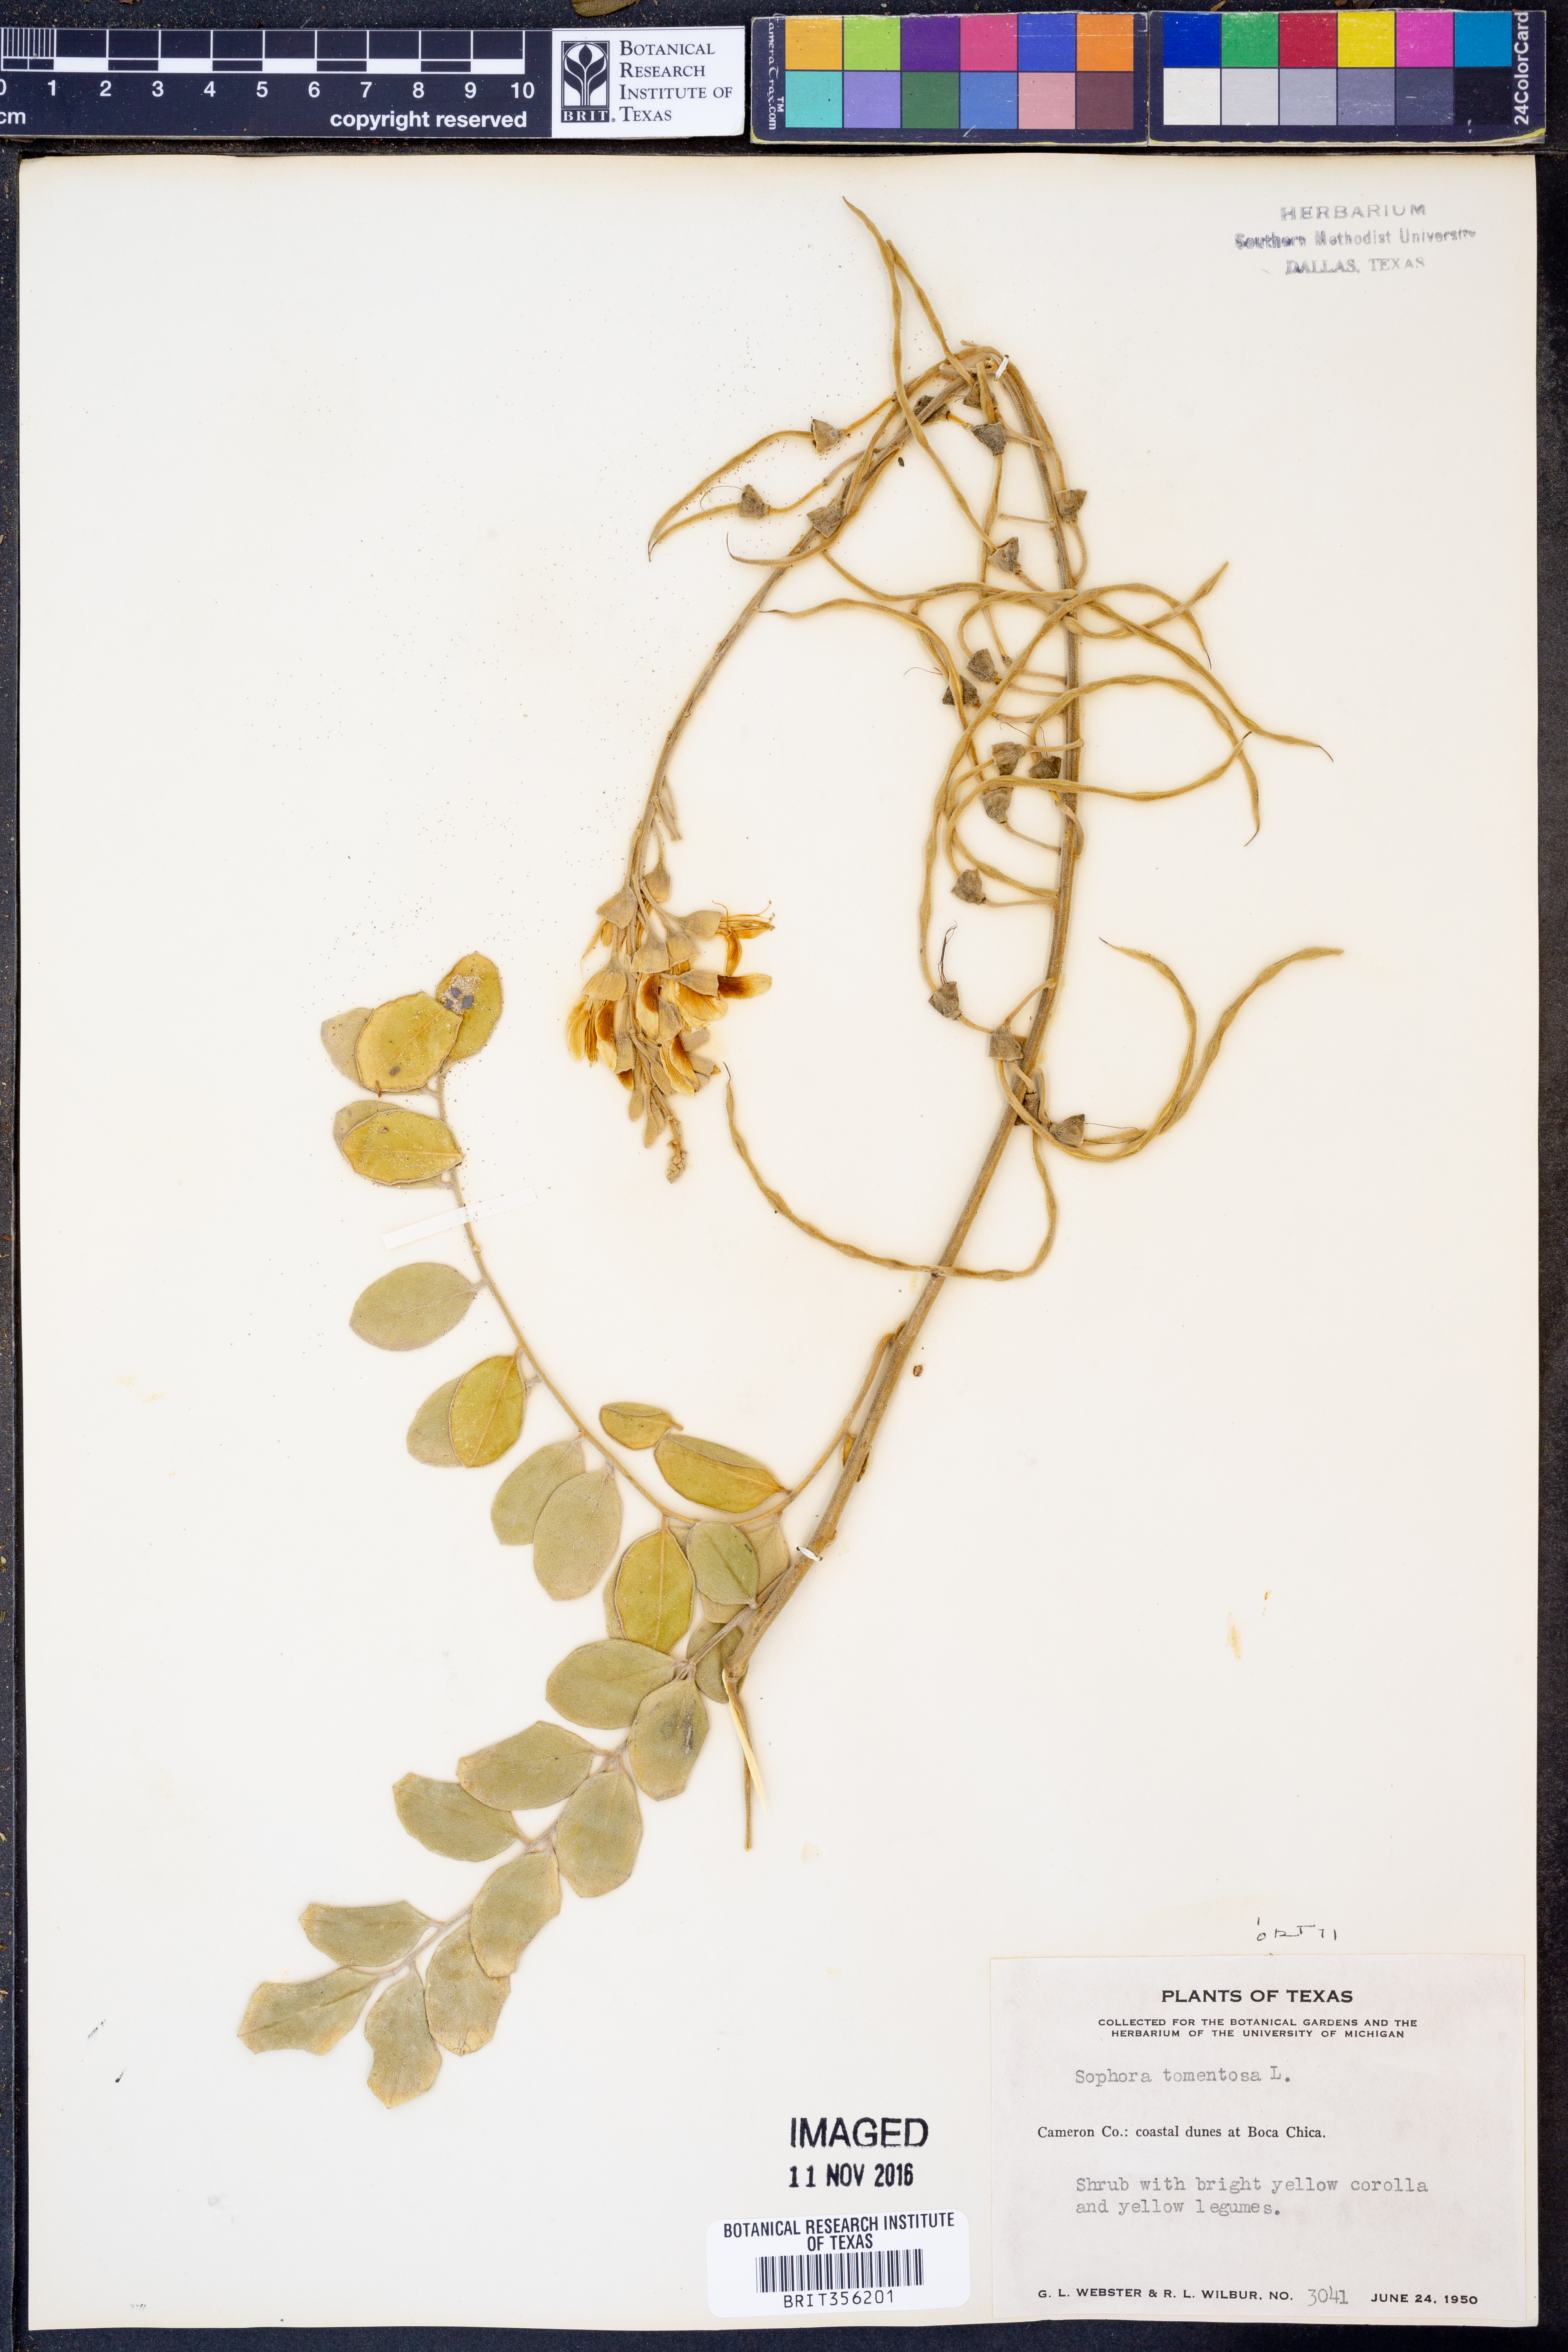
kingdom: Plantae
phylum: Tracheophyta
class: Magnoliopsida
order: Fabales
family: Fabaceae
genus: Sophora
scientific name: Sophora tomentosa
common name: Yellow necklacepod
